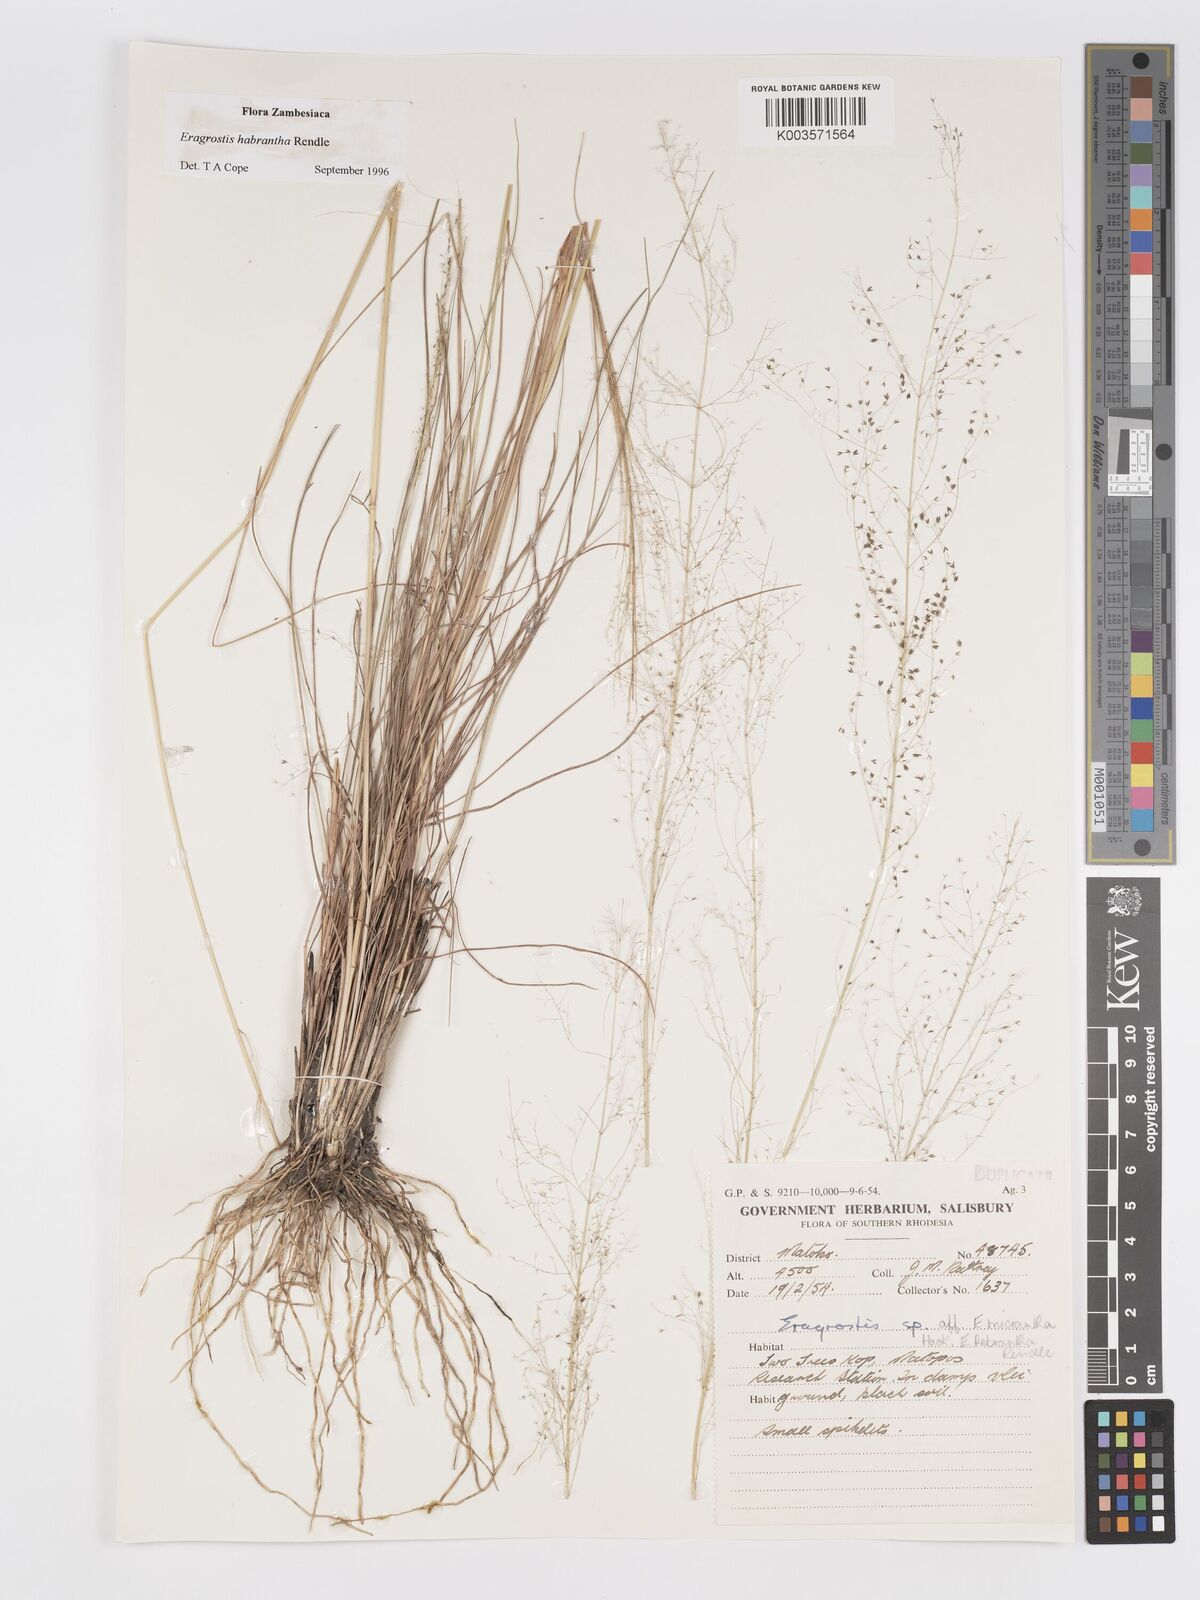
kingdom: Plantae
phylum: Tracheophyta
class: Liliopsida
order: Poales
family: Poaceae
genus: Eragrostis
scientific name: Eragrostis habrantha
